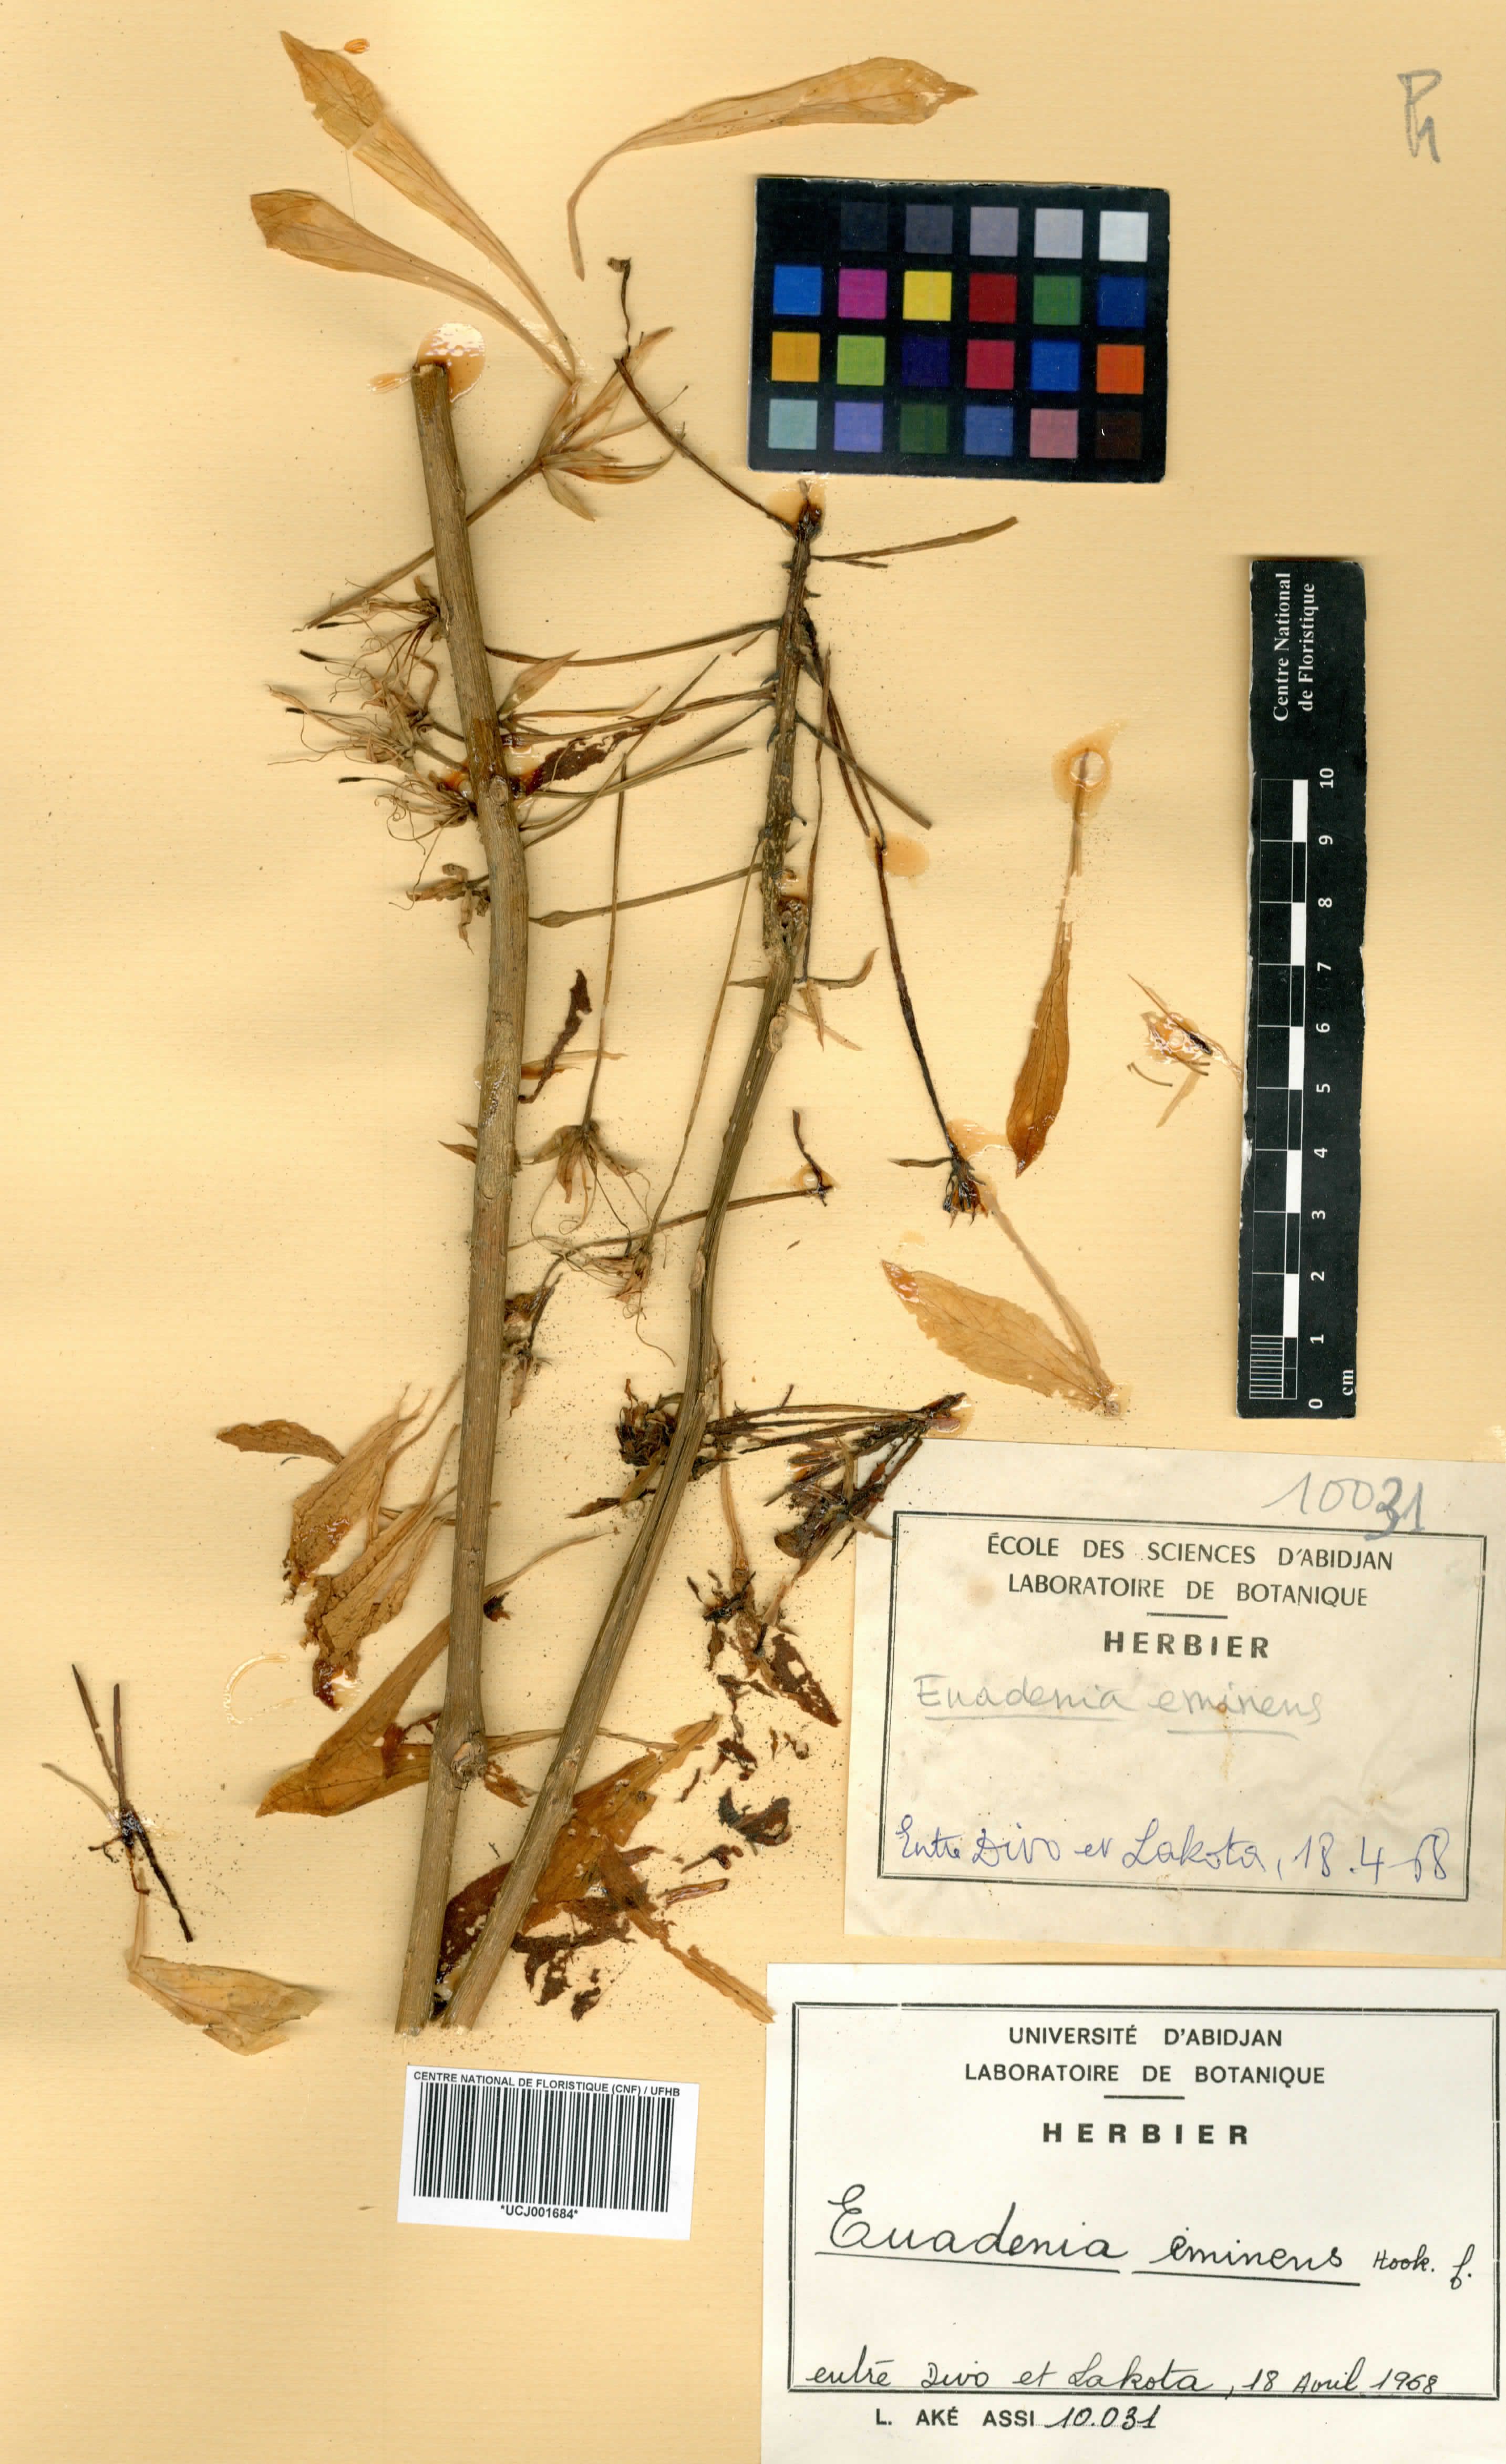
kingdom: Plantae
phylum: Tracheophyta
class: Magnoliopsida
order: Brassicales
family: Capparaceae
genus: Euadenia
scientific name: Euadenia eminens
